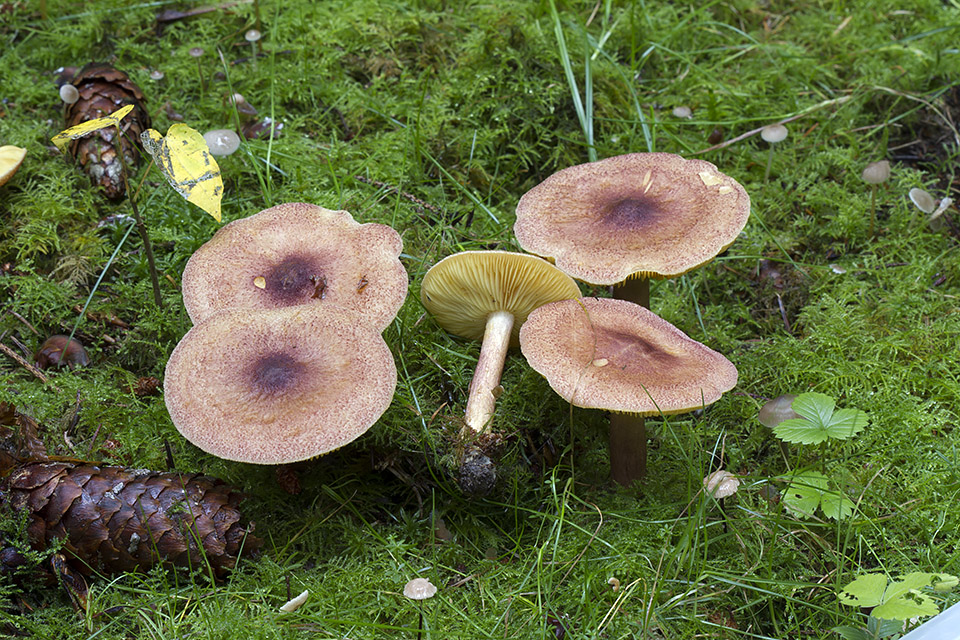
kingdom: Fungi
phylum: Basidiomycota
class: Agaricomycetes
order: Agaricales
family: Tricholomataceae
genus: Tricholomopsis
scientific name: Tricholomopsis rutilans
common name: purpur-væbnerhat
